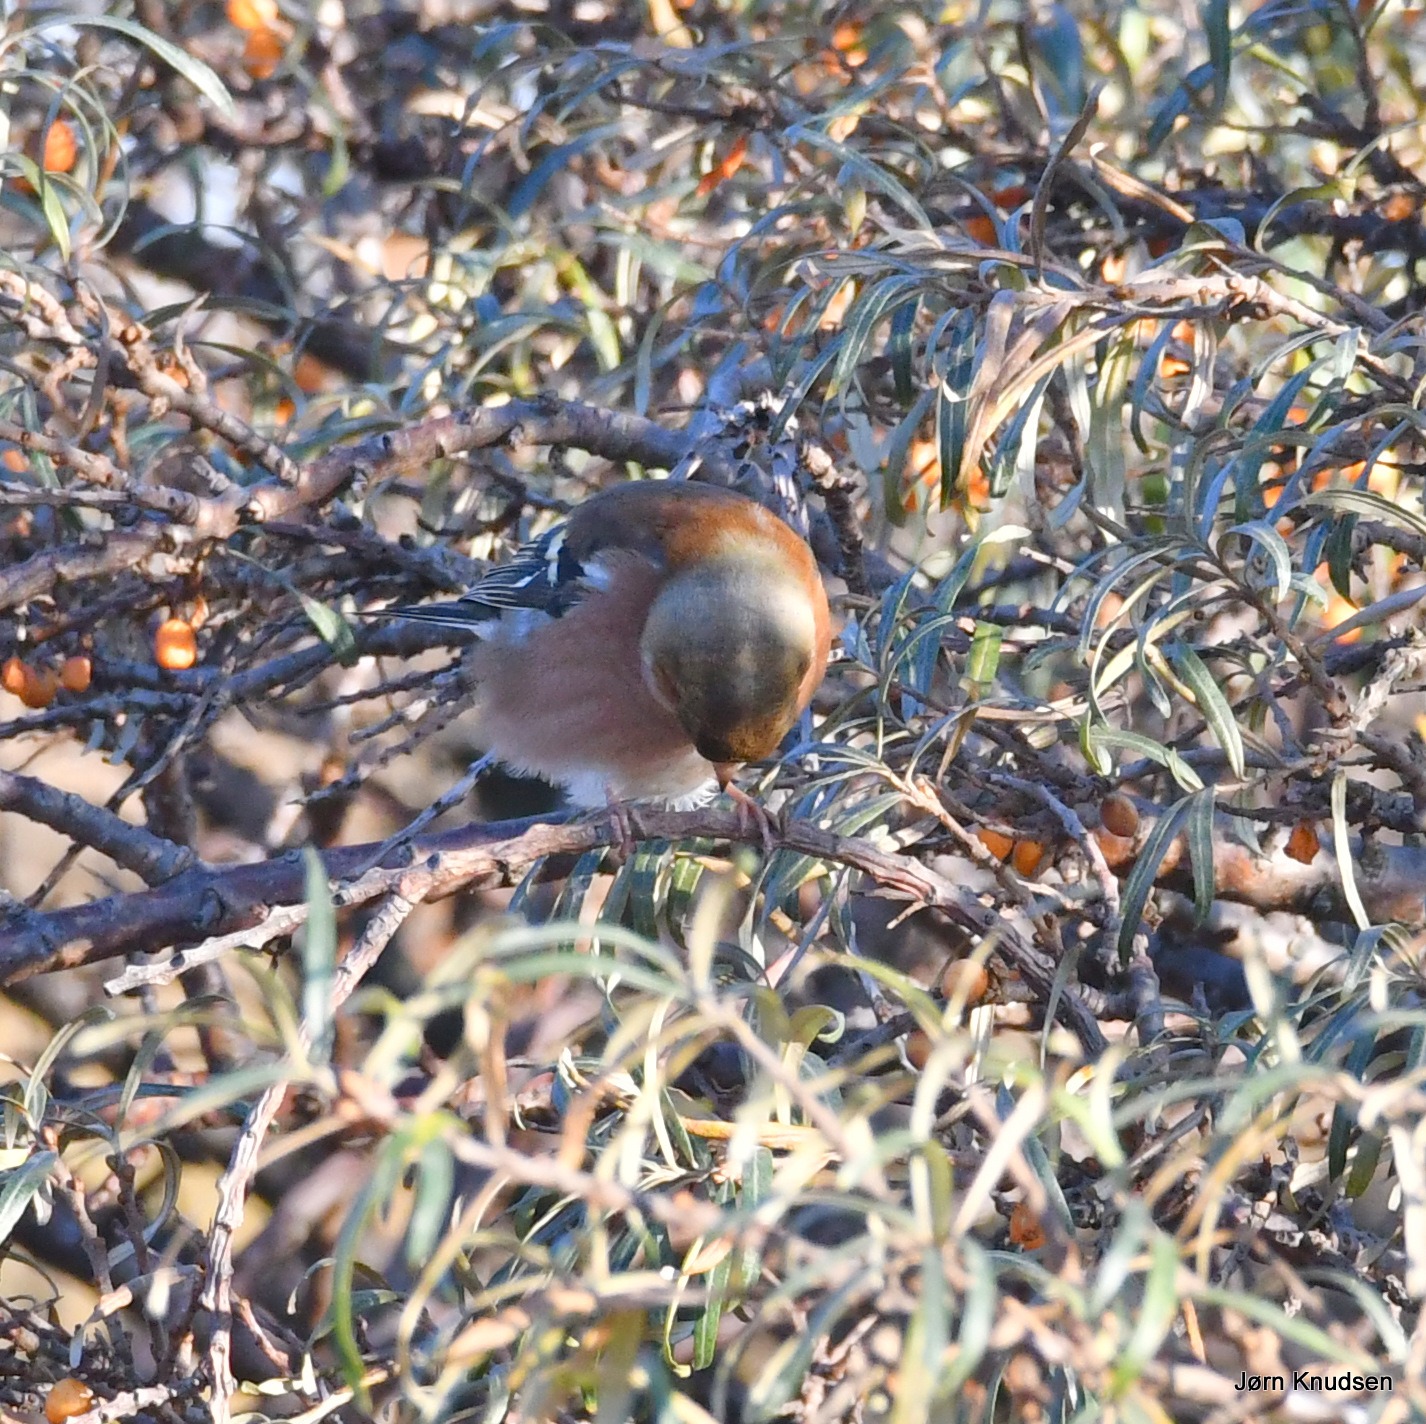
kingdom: Animalia
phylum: Chordata
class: Aves
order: Passeriformes
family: Fringillidae
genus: Fringilla
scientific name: Fringilla coelebs
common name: Bogfinke
